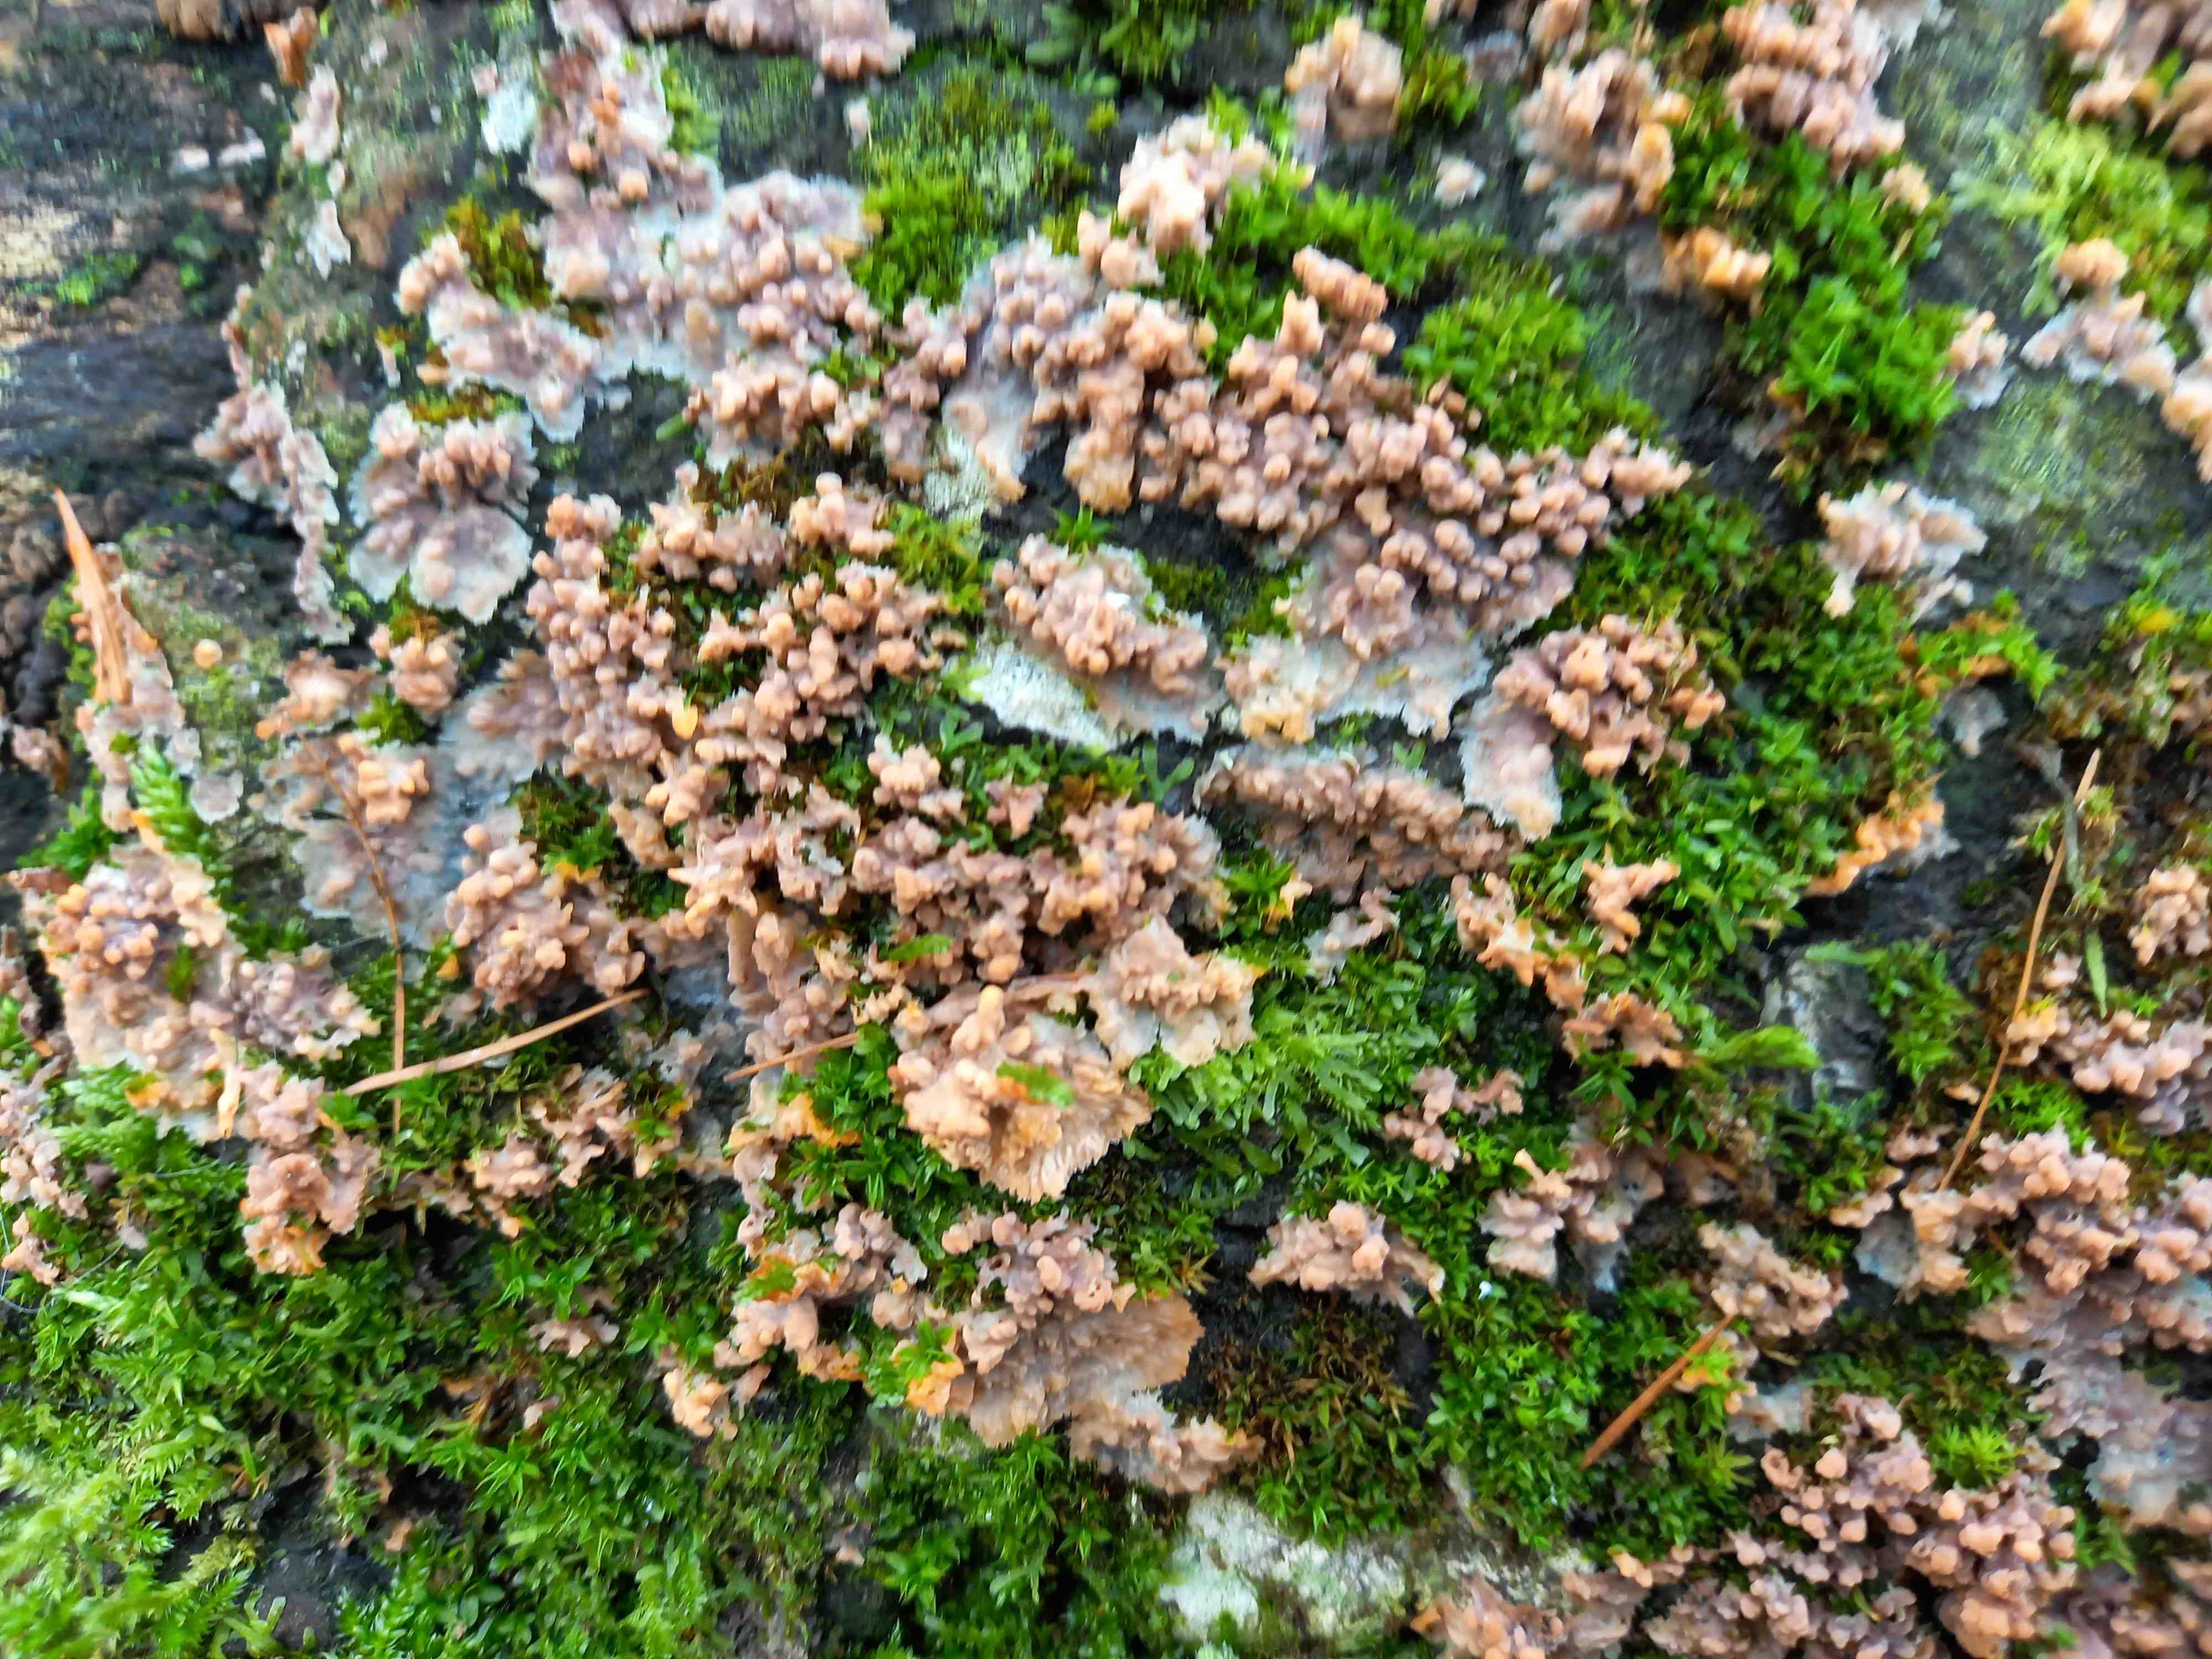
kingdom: Fungi
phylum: Basidiomycota
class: Agaricomycetes
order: Polyporales
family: Meruliaceae
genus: Phlebia
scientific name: Phlebia radiata
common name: stråle-åresvamp
